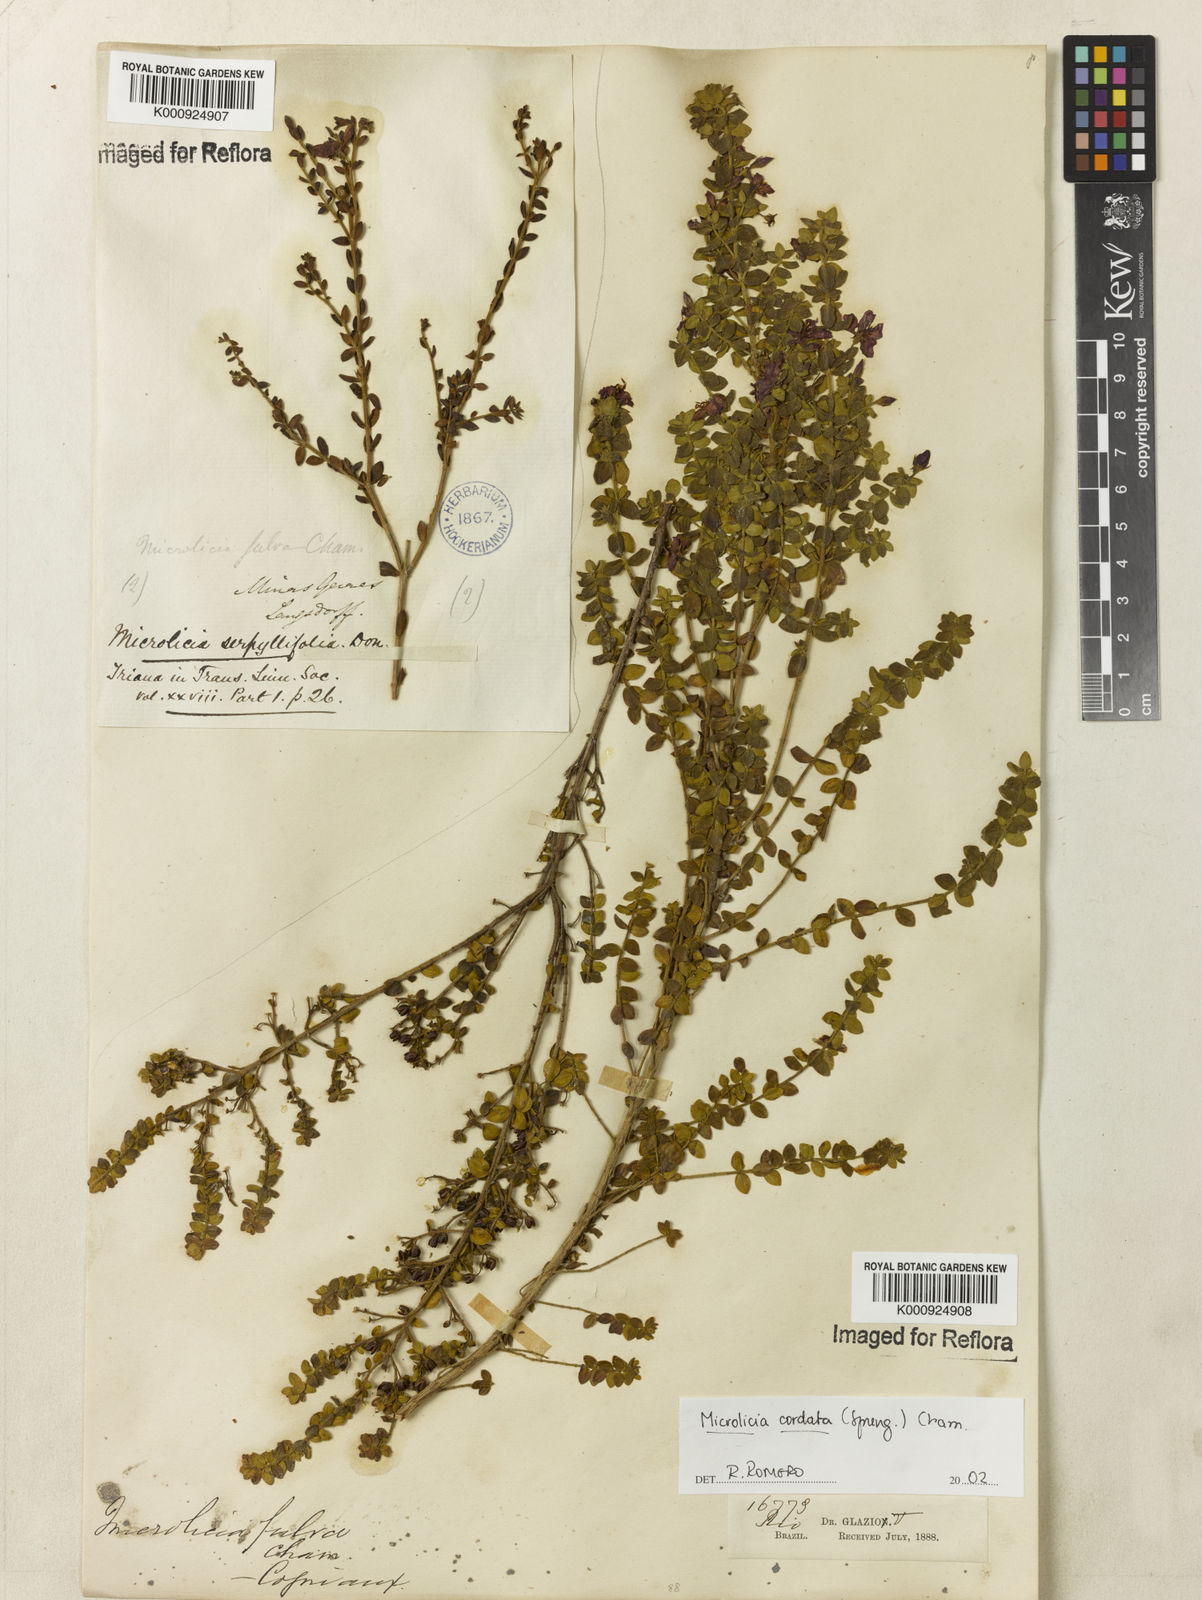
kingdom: Plantae
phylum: Tracheophyta
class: Magnoliopsida
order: Myrtales
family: Melastomataceae
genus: Microlicia
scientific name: Microlicia cordata
